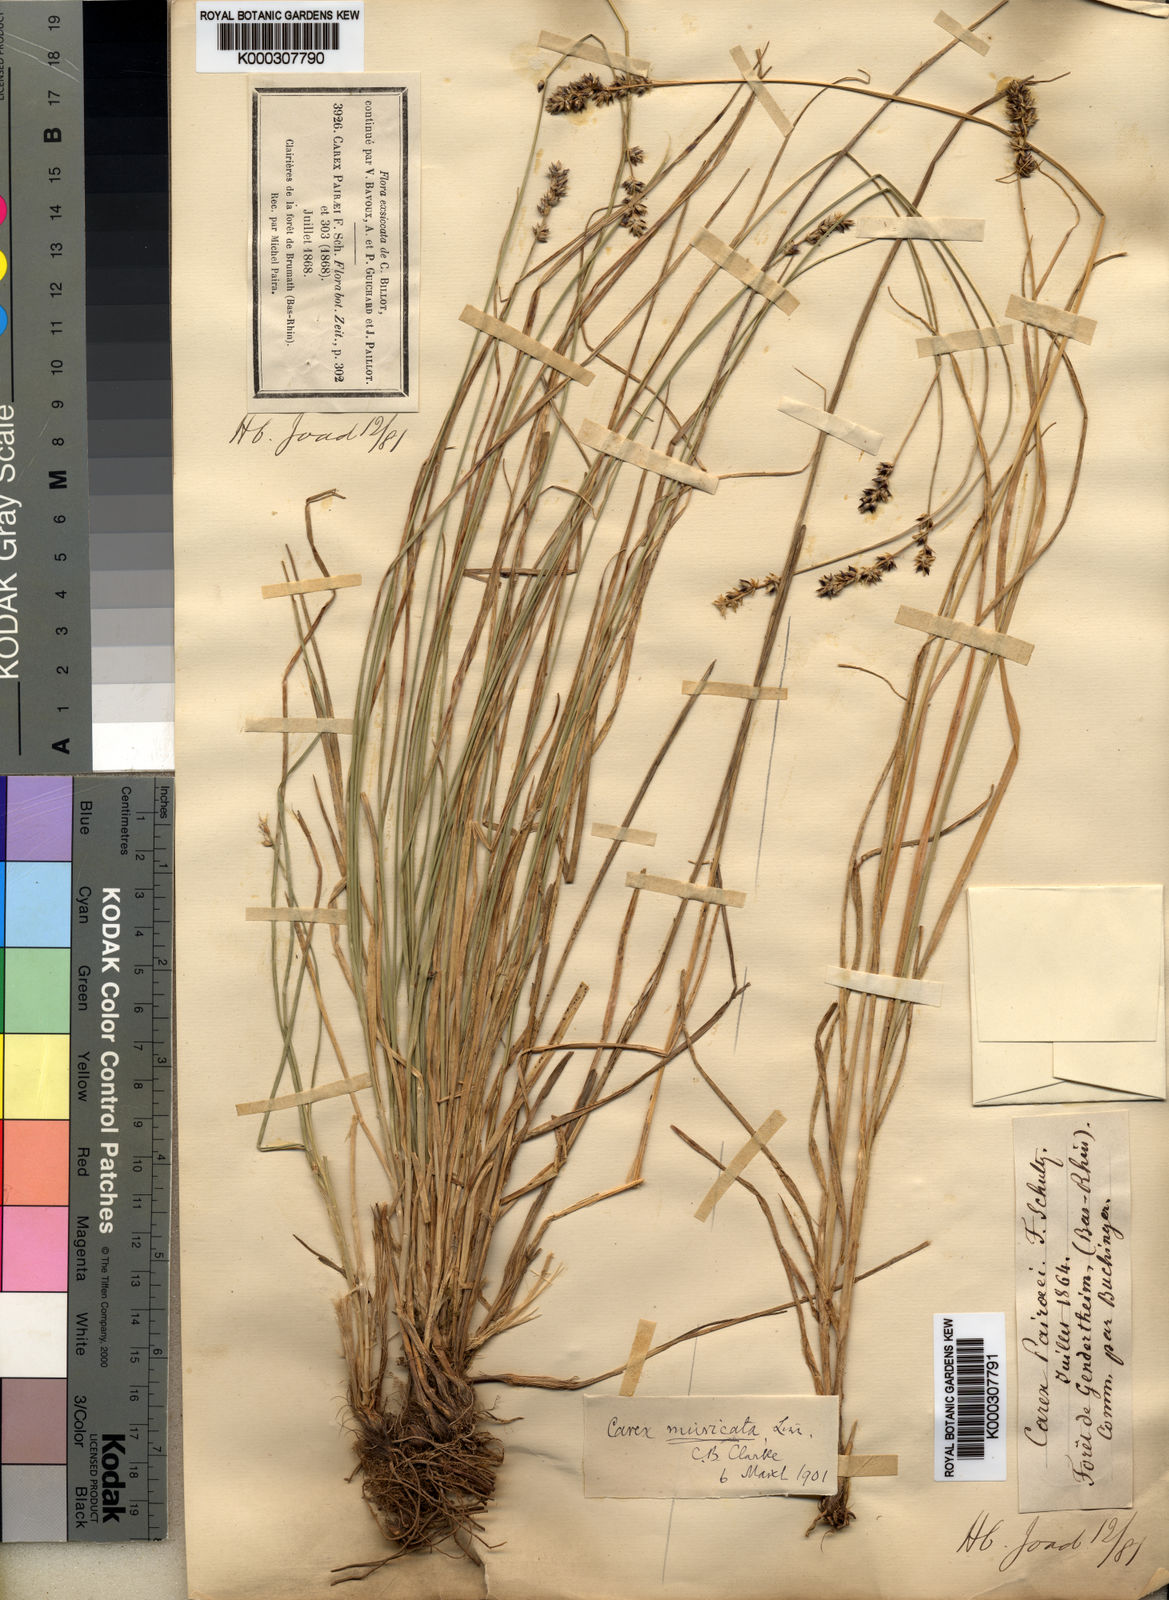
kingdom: Plantae
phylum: Tracheophyta
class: Liliopsida
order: Poales
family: Cyperaceae
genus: Carex
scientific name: Carex muricata
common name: Rough sedge
